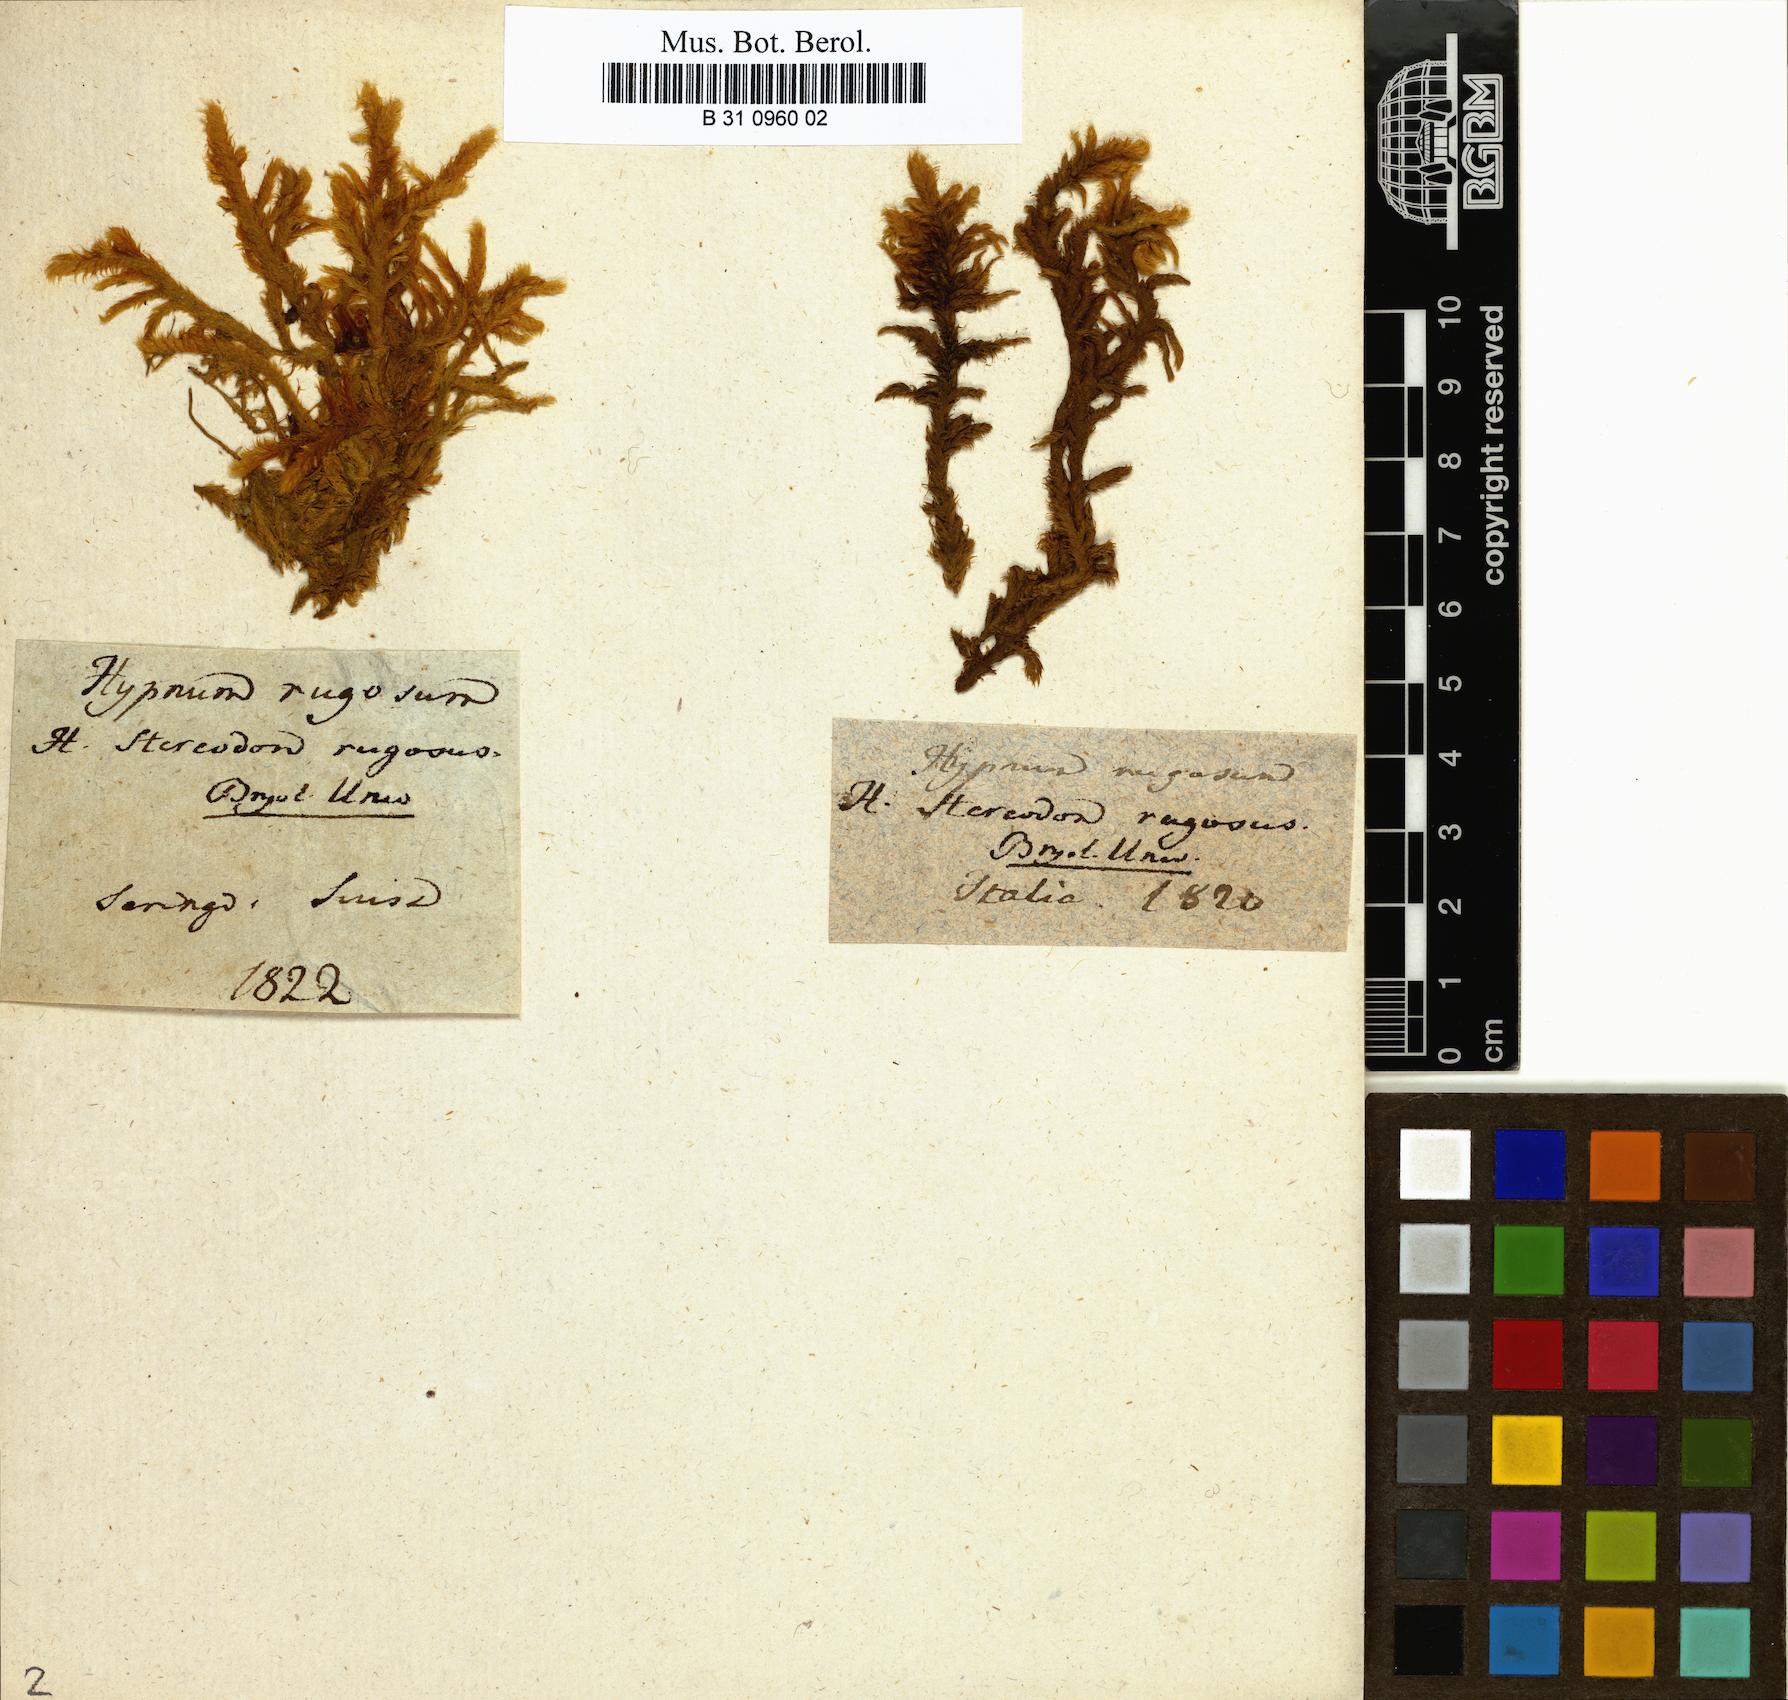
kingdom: Plantae
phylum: Bryophyta
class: Bryopsida
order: Hypnales
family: Rhytidiaceae
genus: Rhytidium
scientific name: Rhytidium rugosum
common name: Wrinkle-leaved moss
